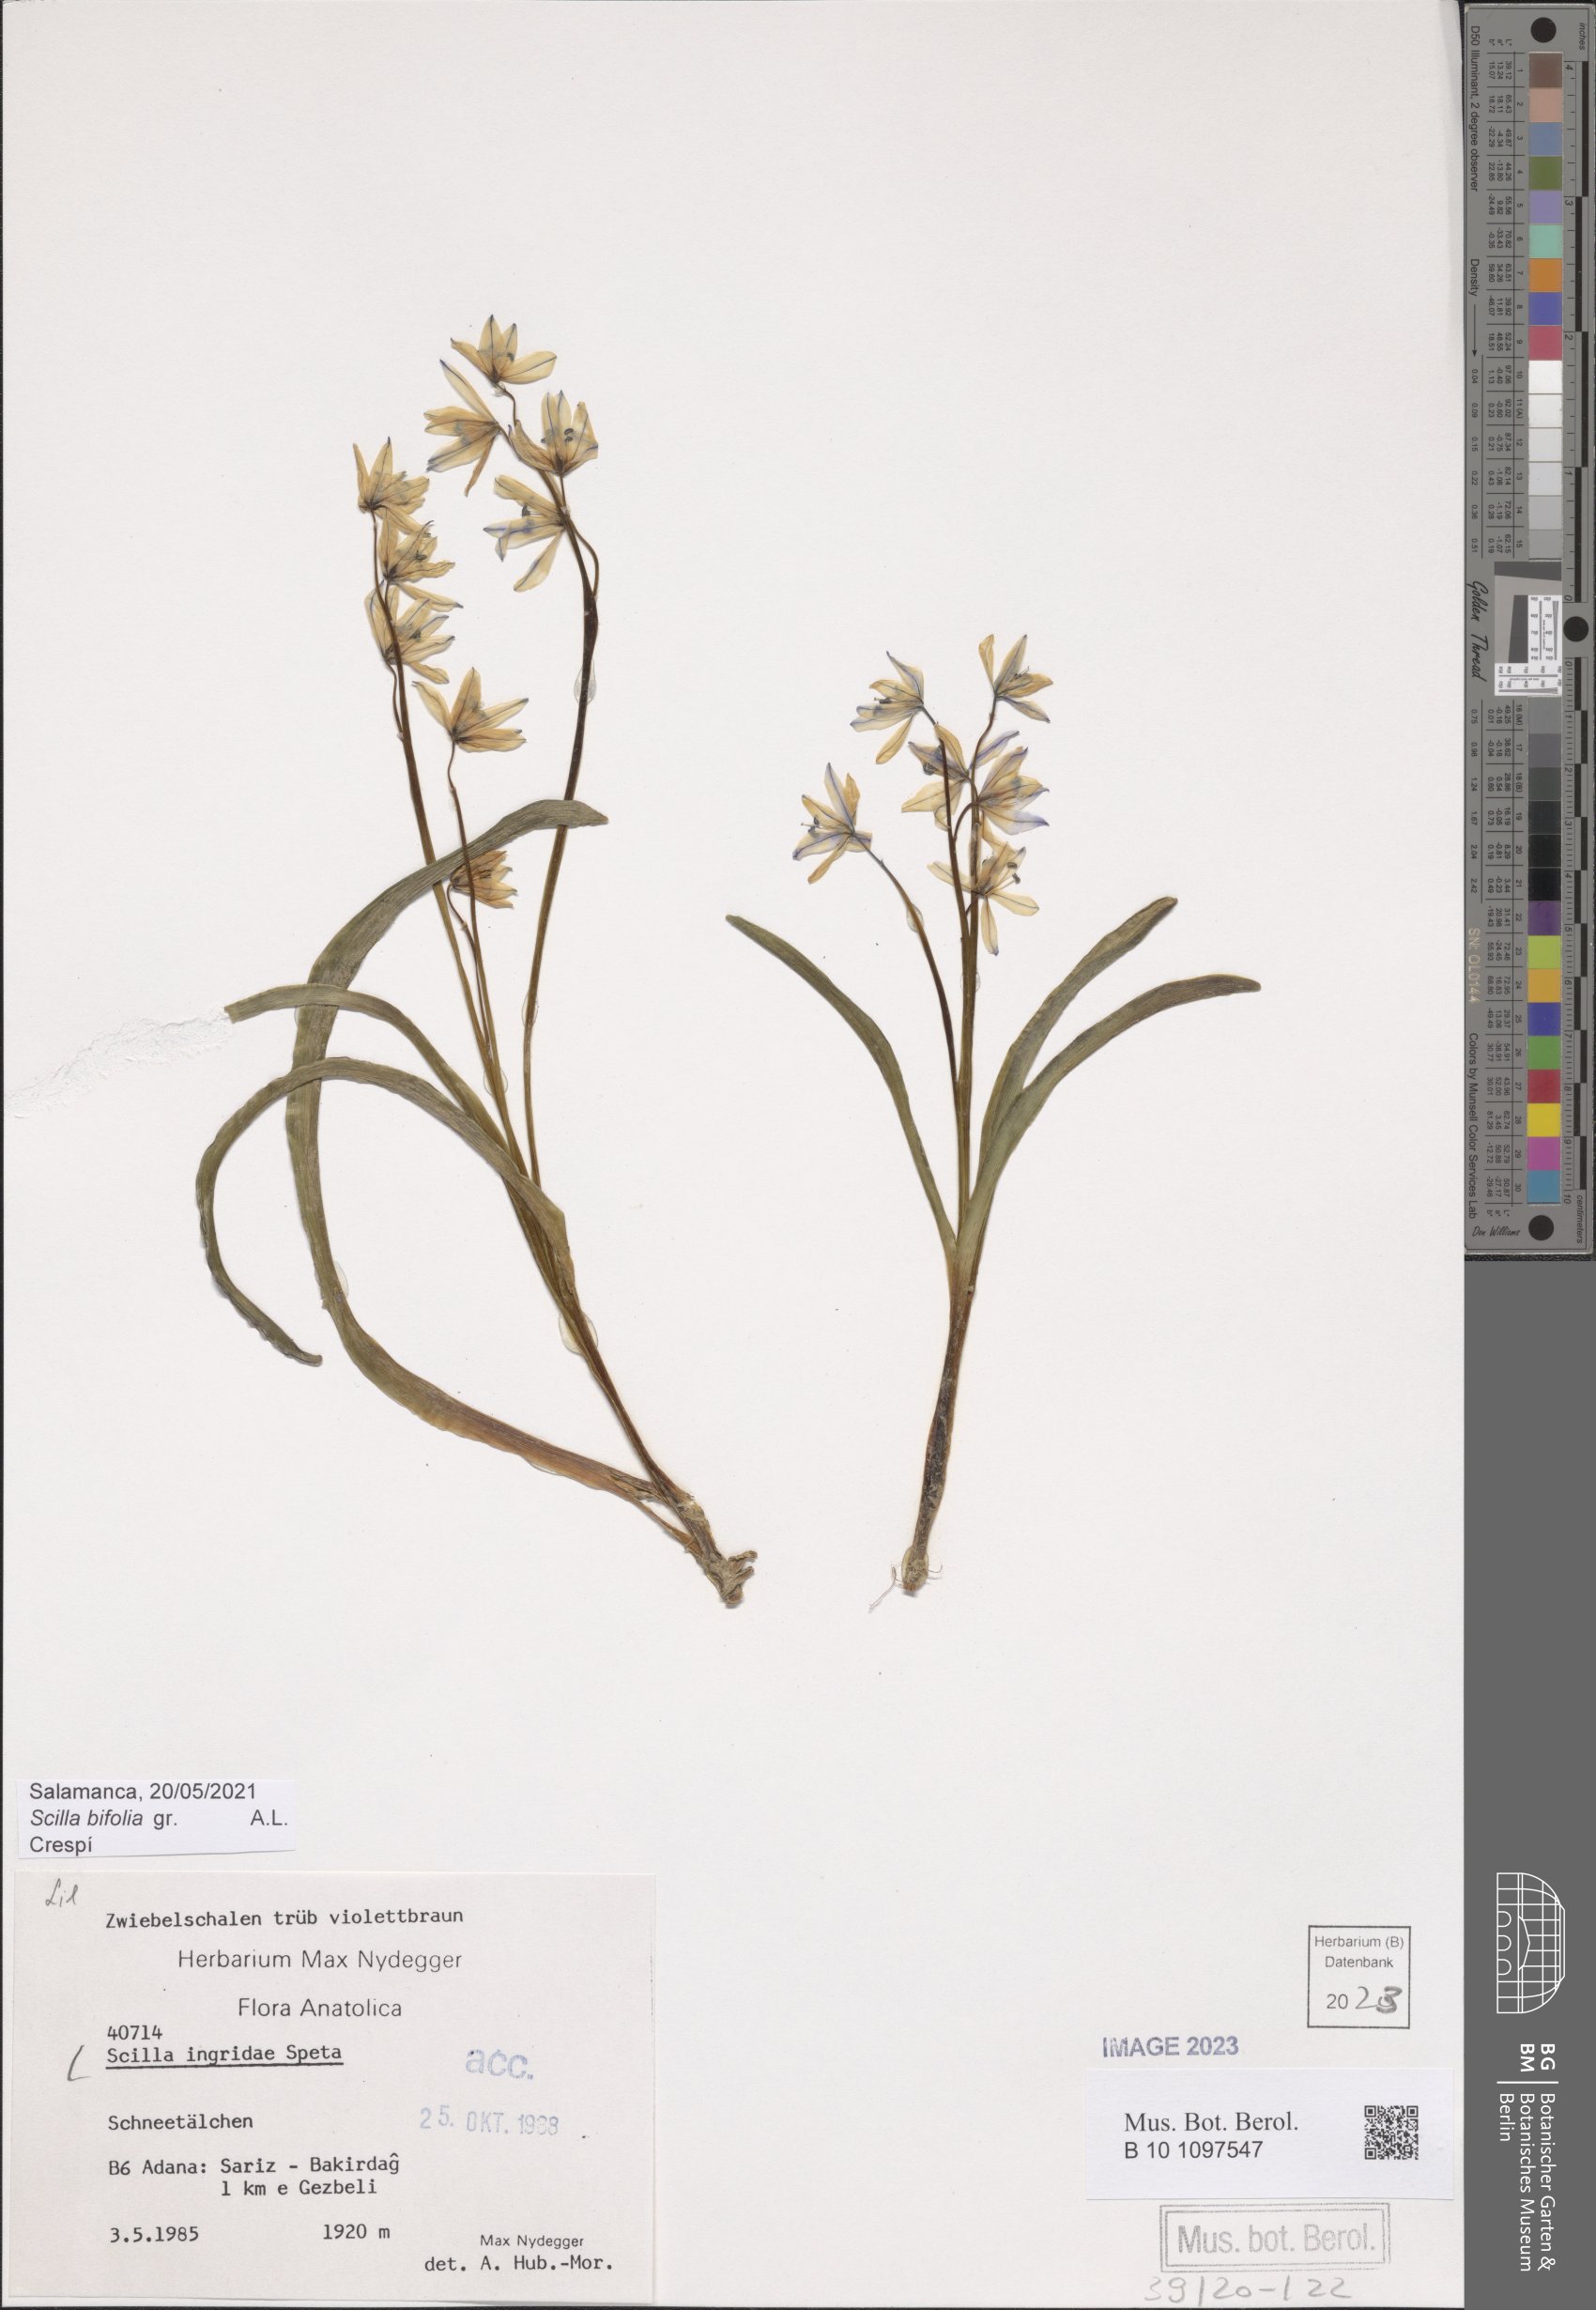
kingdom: Plantae
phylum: Tracheophyta
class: Liliopsida
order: Asparagales
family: Asparagaceae
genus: Scilla
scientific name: Scilla ingridiae
